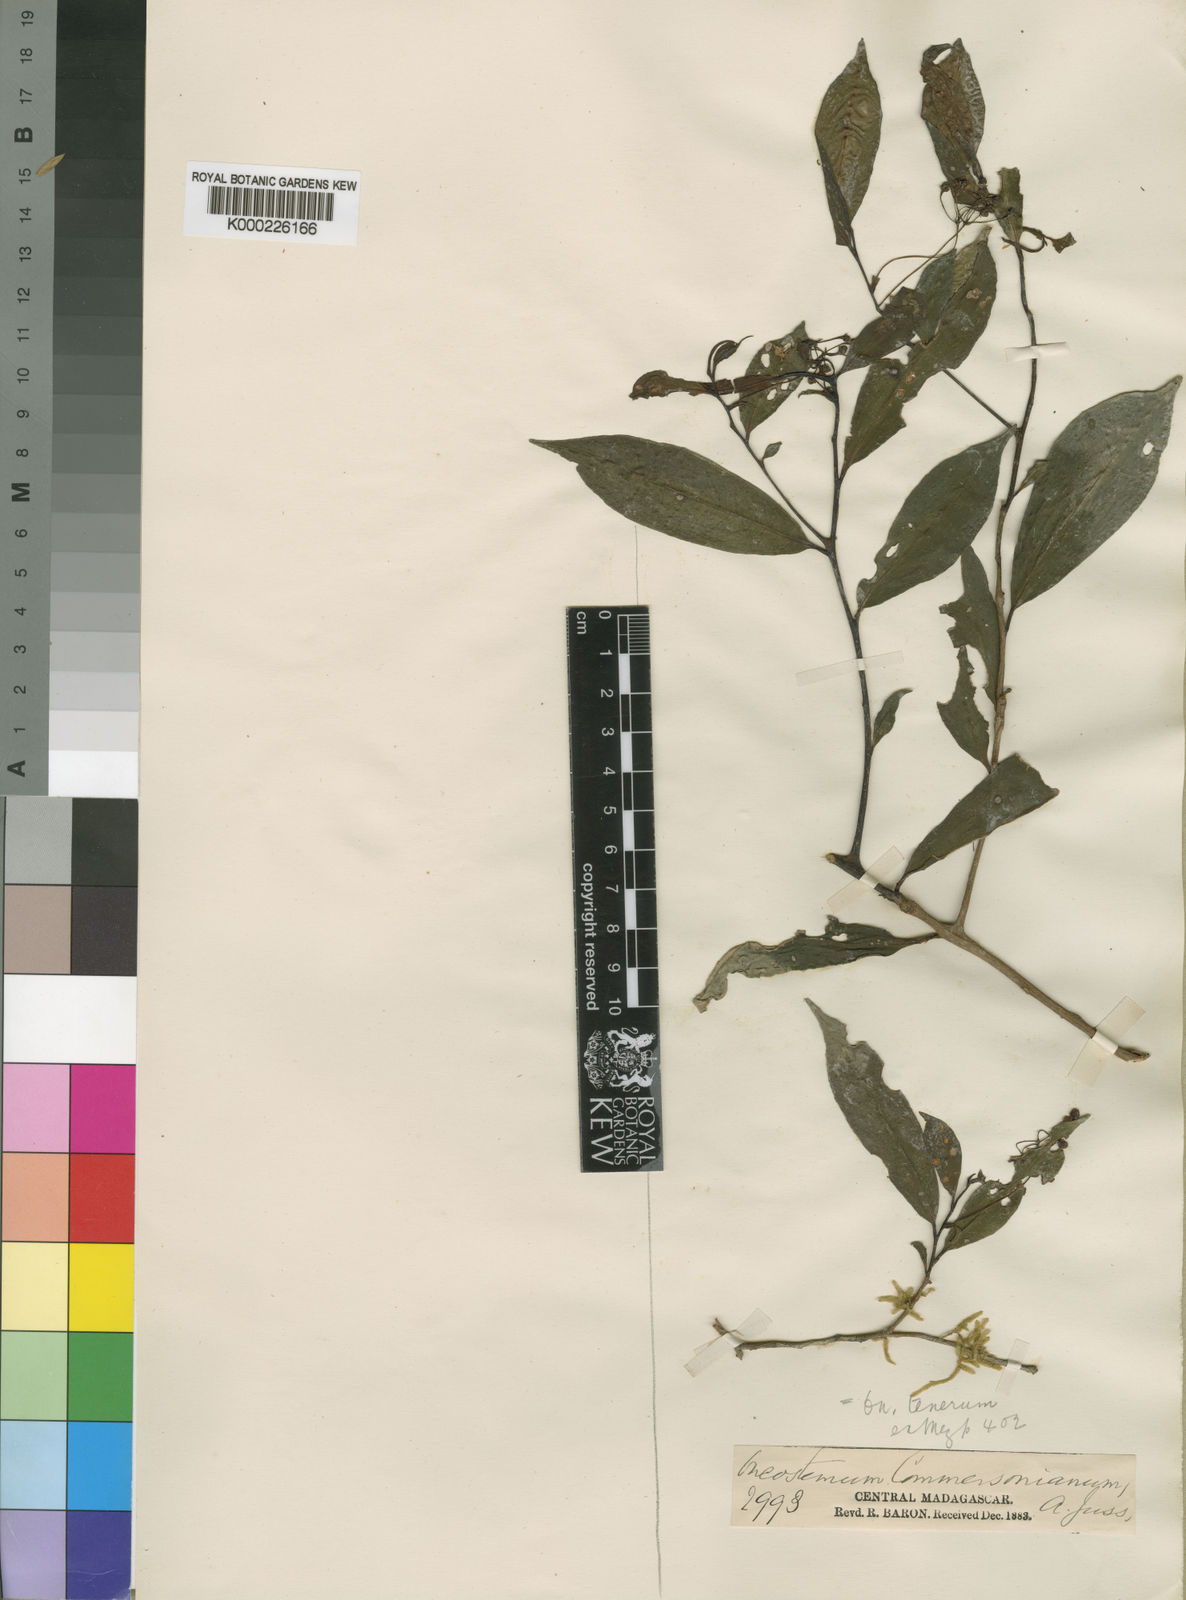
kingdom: Plantae
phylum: Tracheophyta
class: Magnoliopsida
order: Ericales
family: Primulaceae
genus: Oncostemum
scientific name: Oncostemum tenerum
